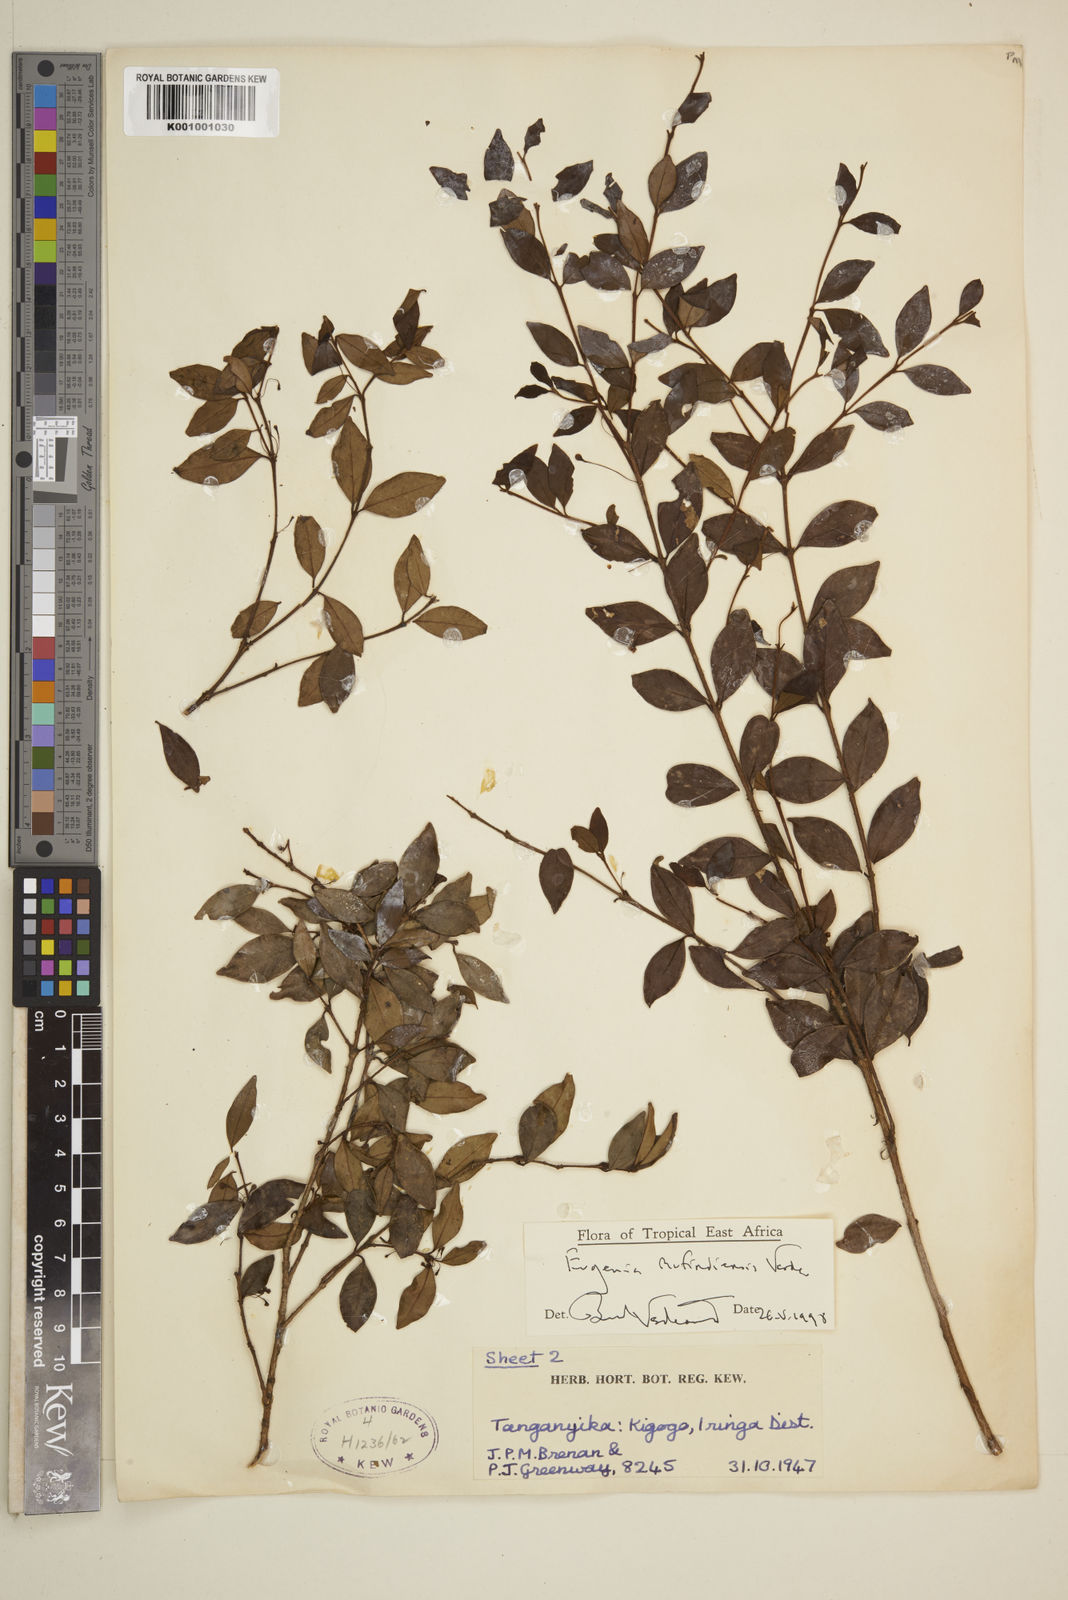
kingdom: Plantae
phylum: Tracheophyta
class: Magnoliopsida
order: Myrtales
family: Myrtaceae
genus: Eugenia
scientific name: Eugenia mufindiensis
